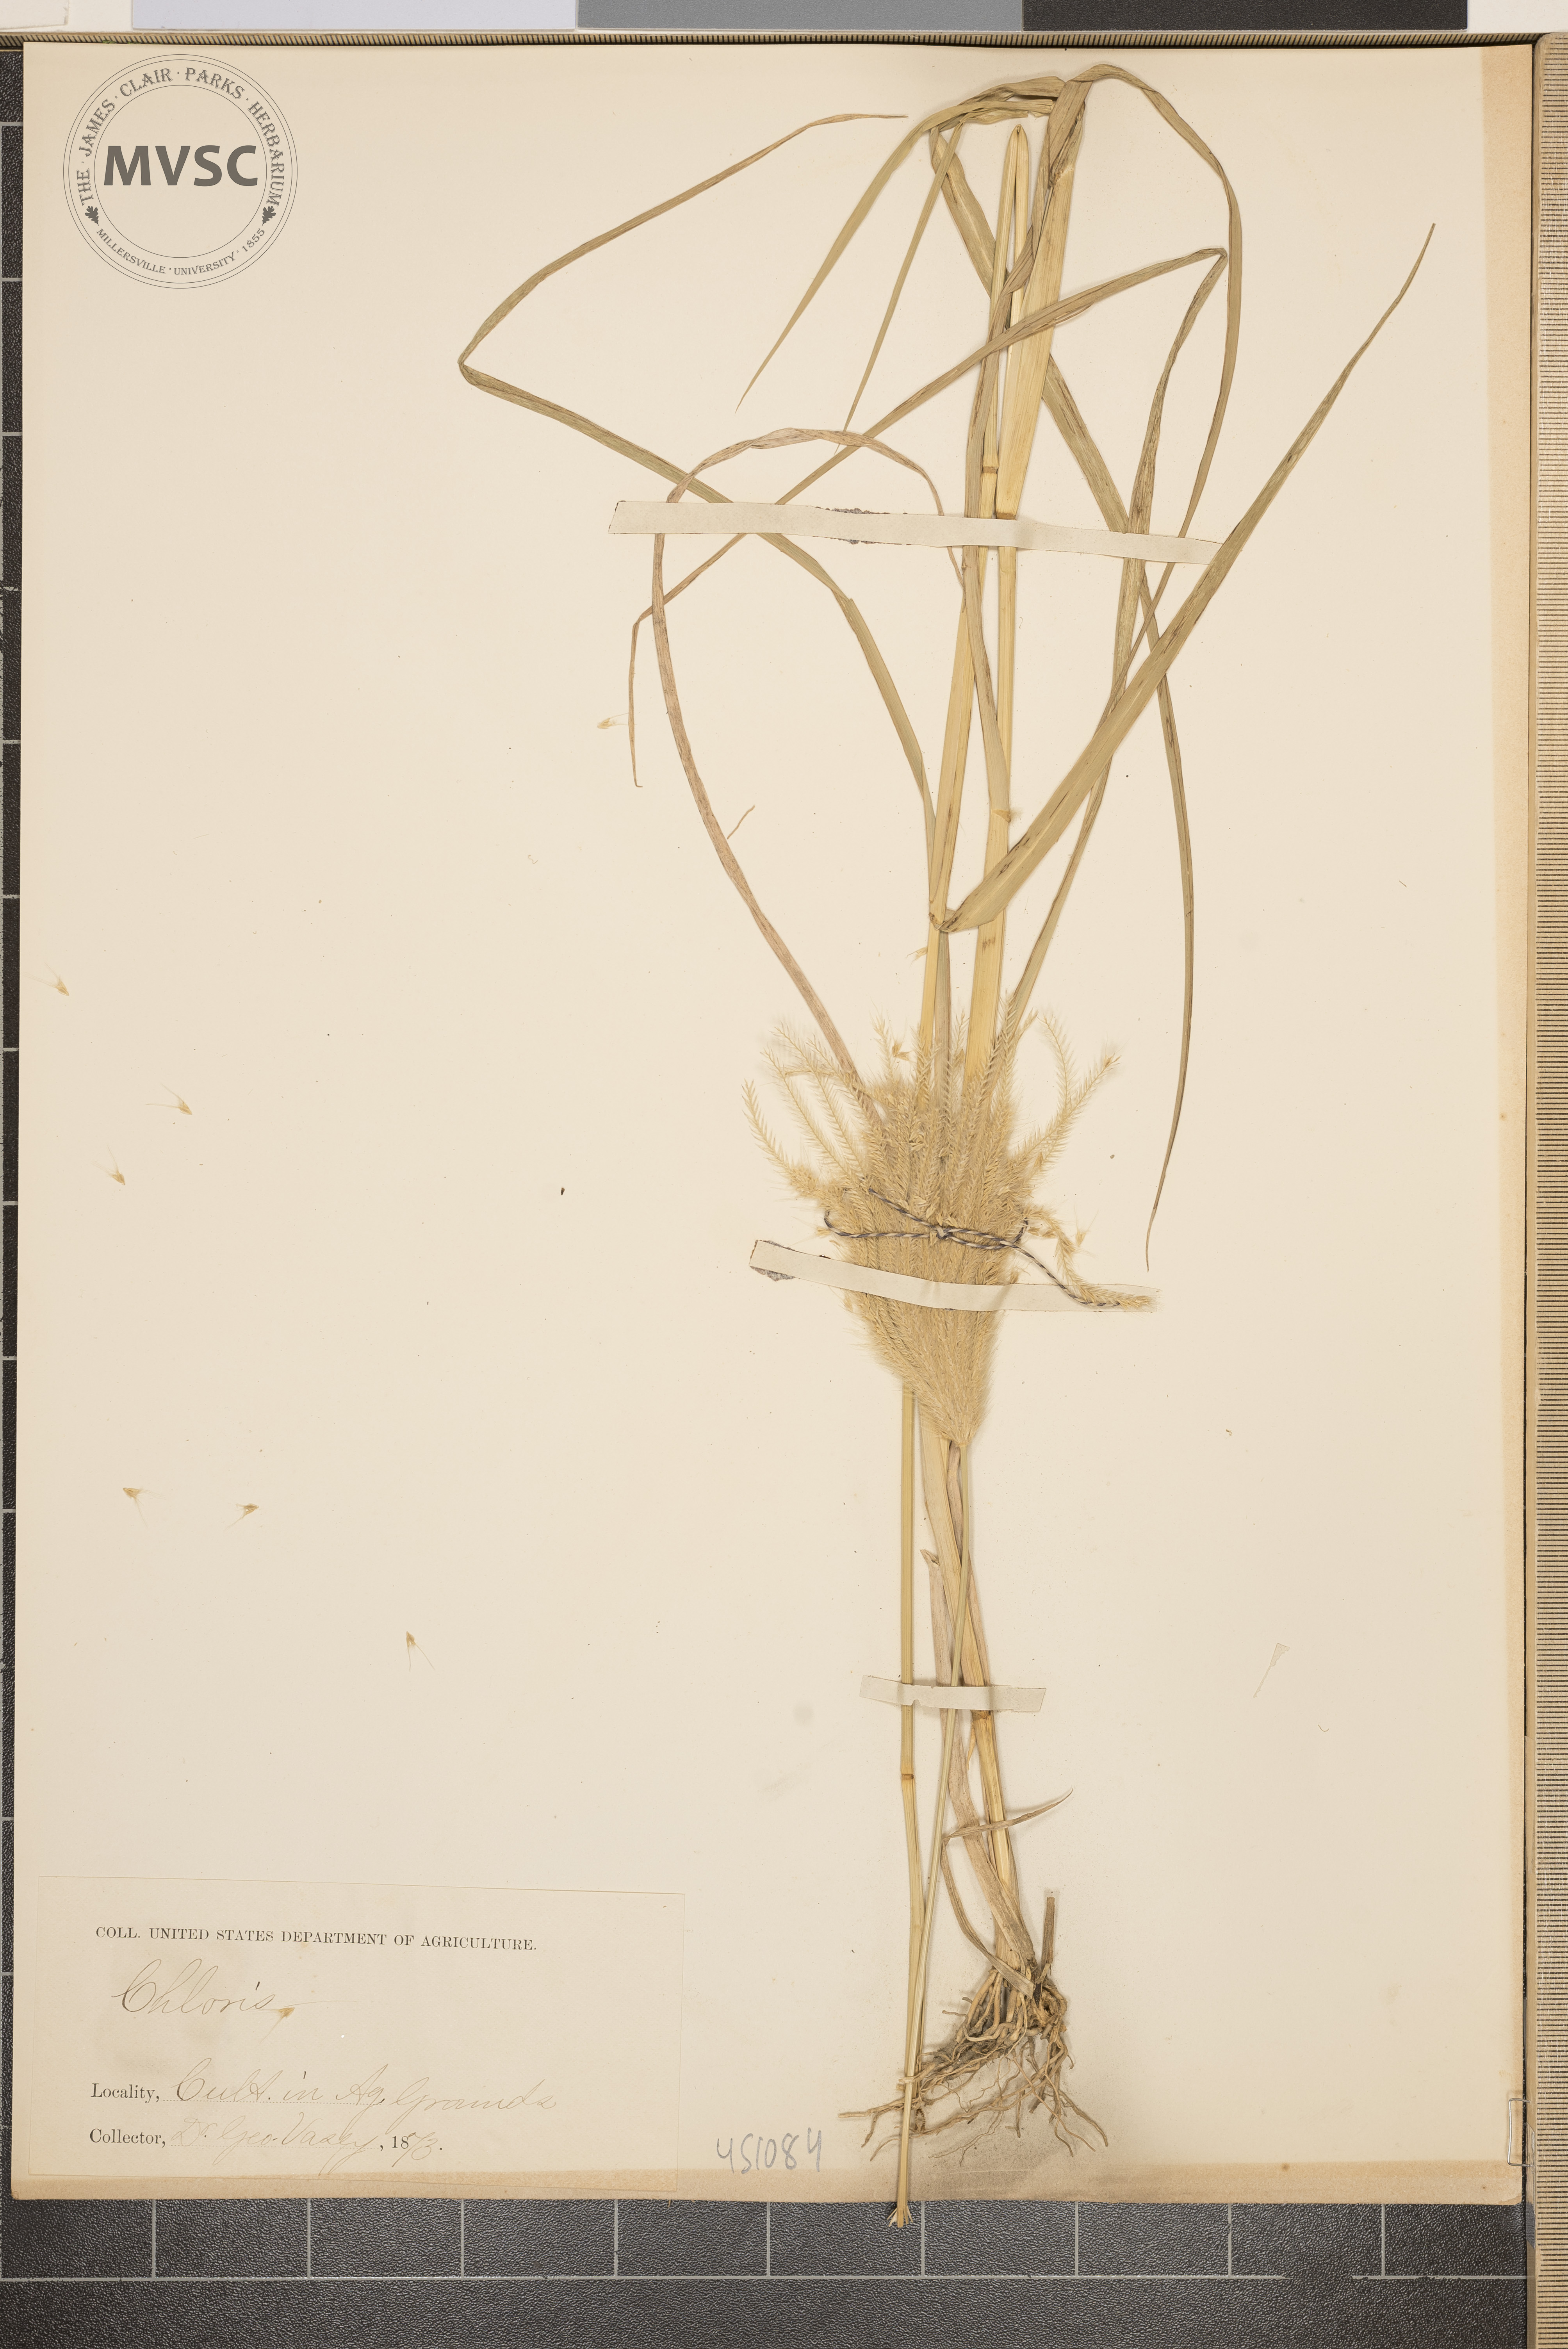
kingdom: Plantae
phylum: Tracheophyta
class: Liliopsida
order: Poales
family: Poaceae
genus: Chloris
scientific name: Chloris
